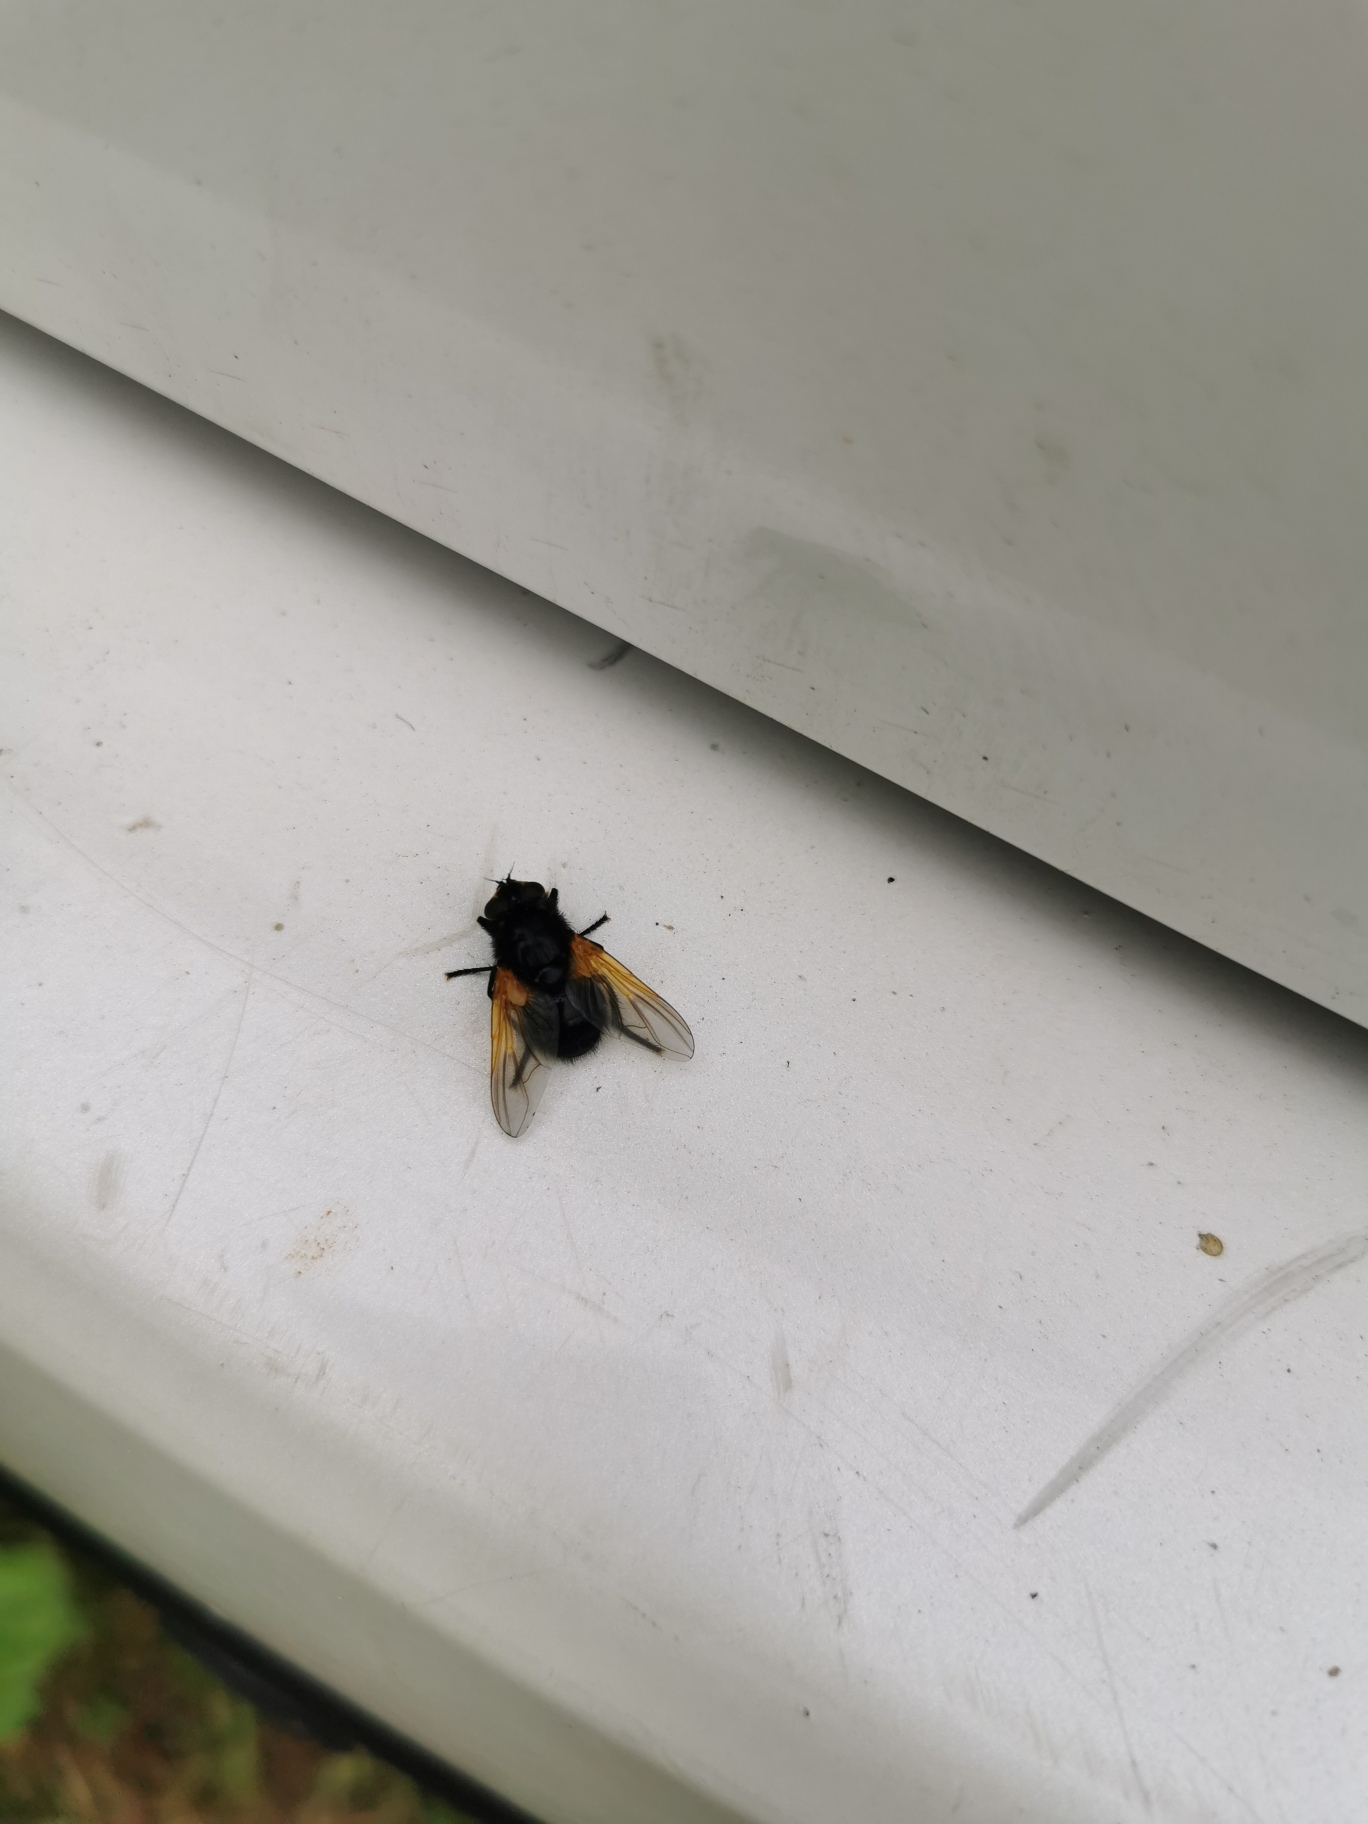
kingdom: Animalia
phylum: Arthropoda
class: Insecta
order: Diptera
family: Muscidae
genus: Mesembrina
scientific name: Mesembrina meridiana
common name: Gulvinget flue
